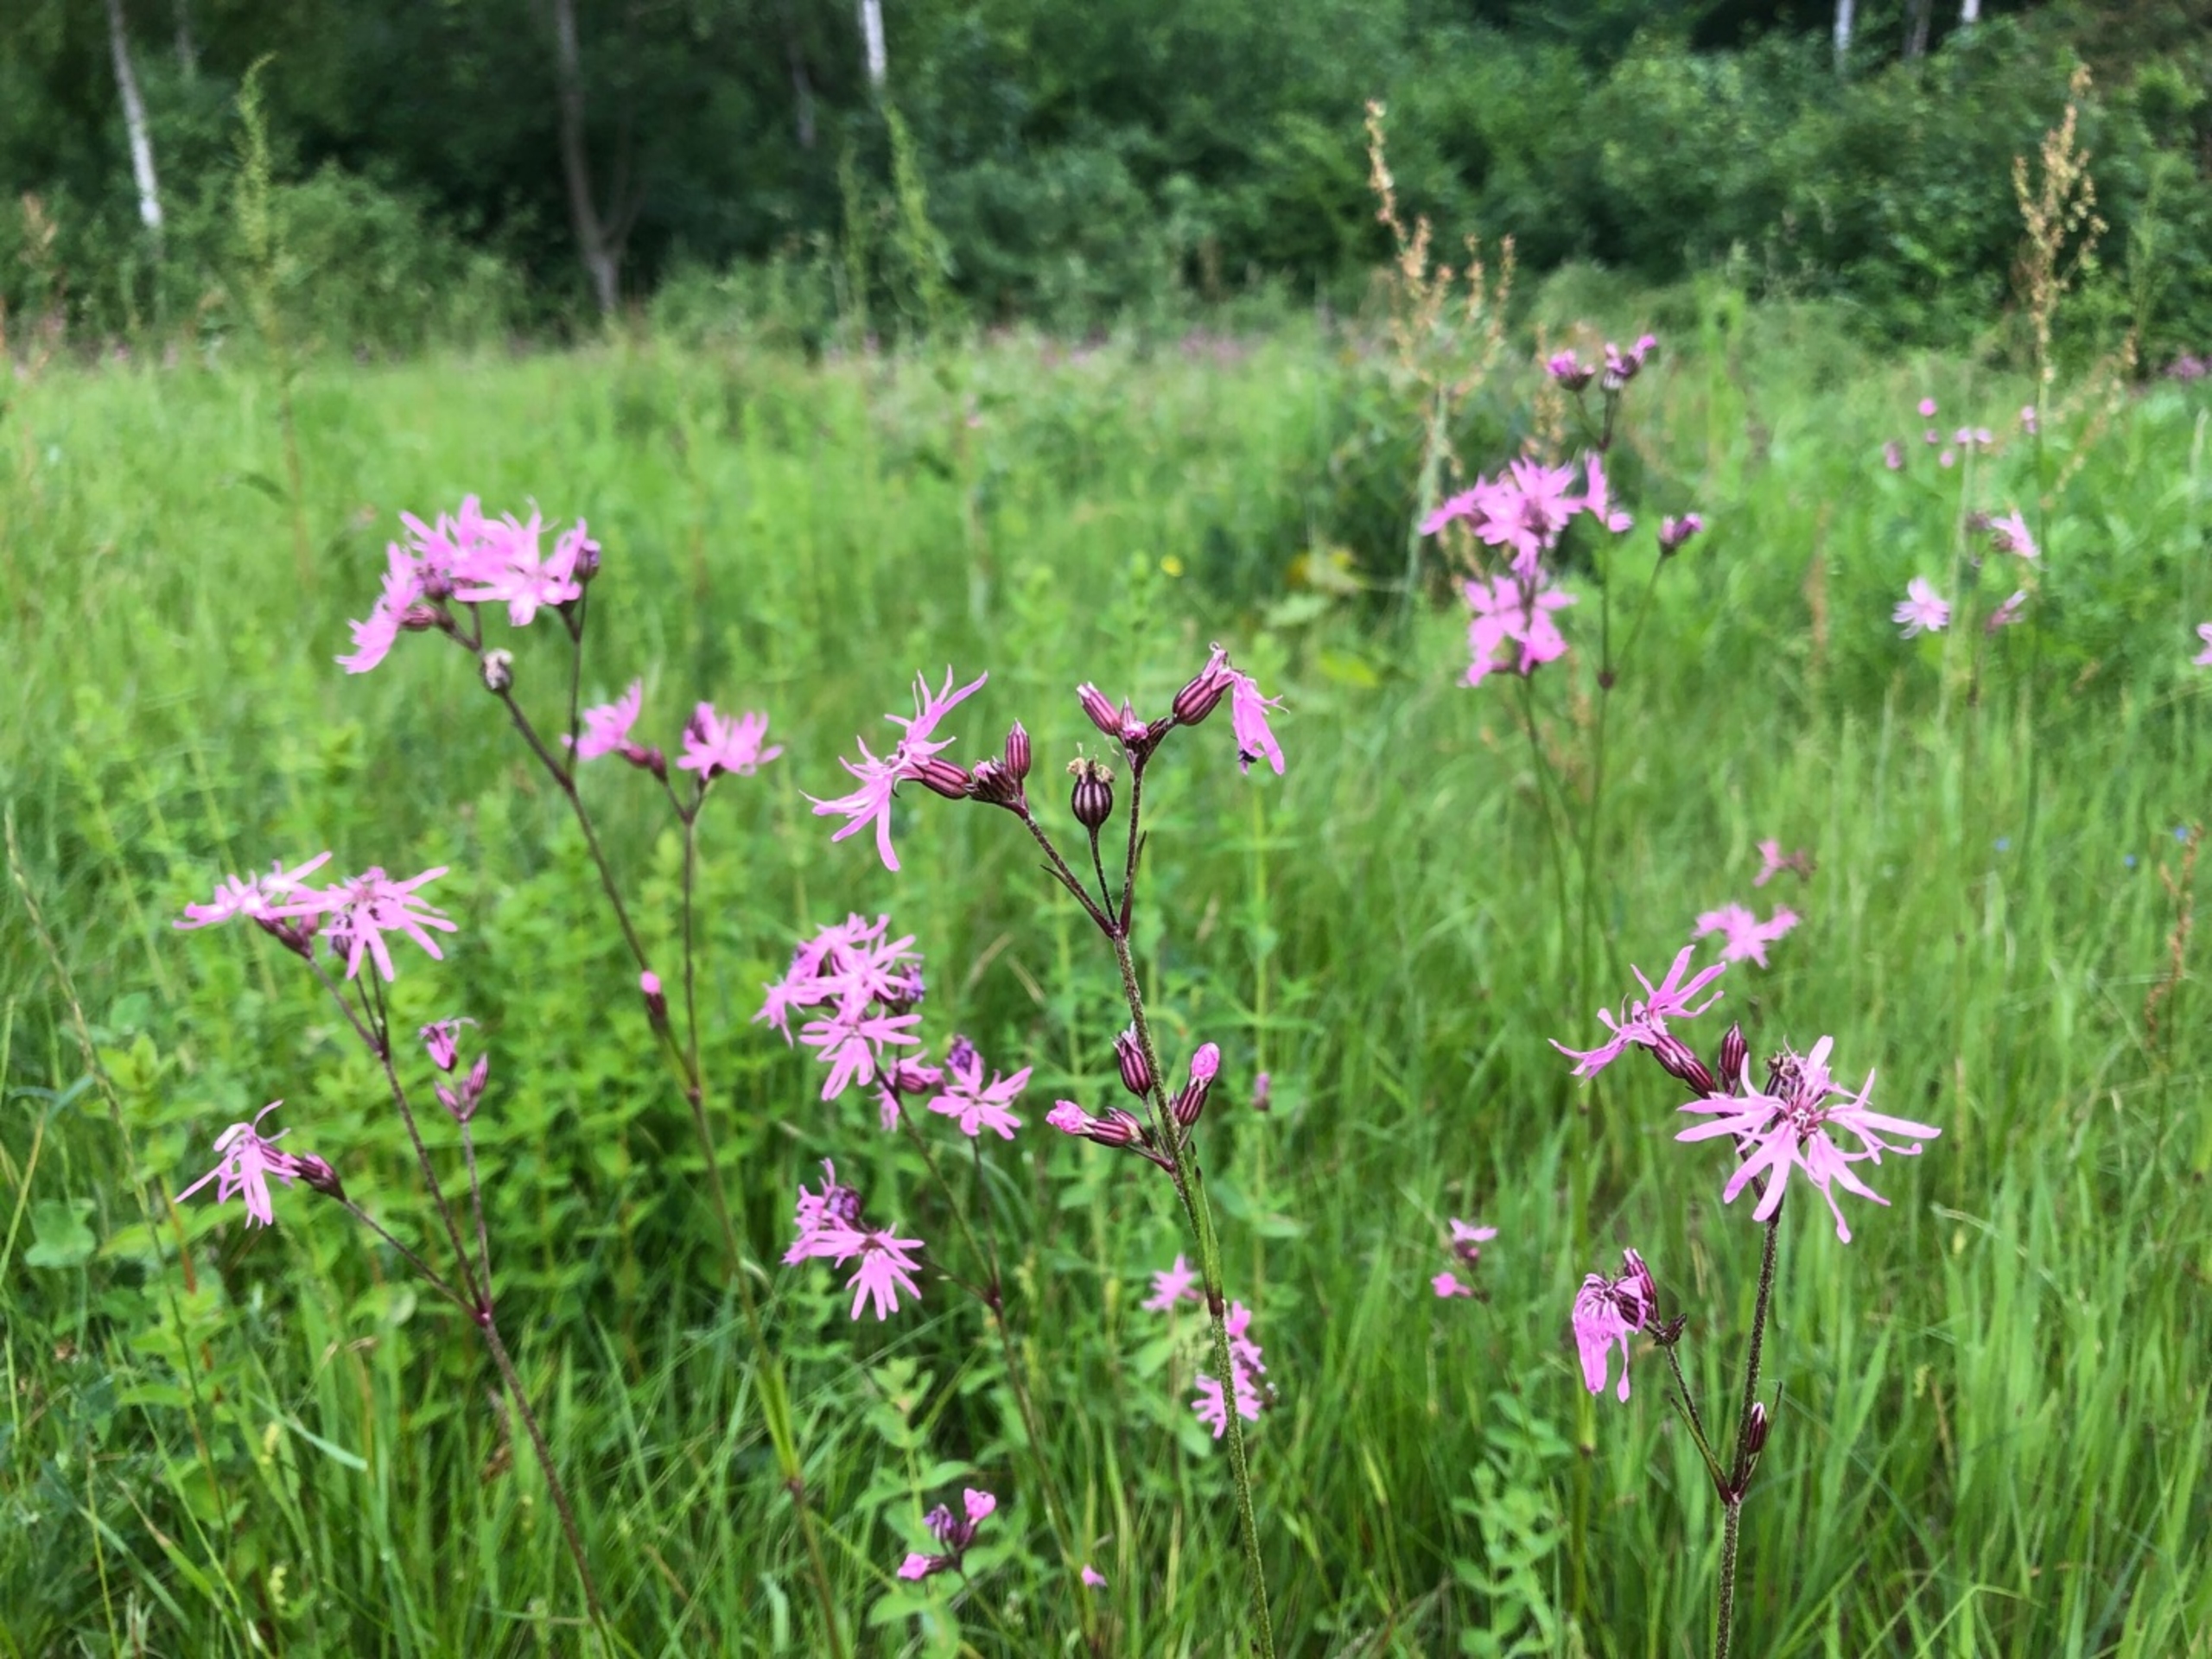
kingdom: Plantae
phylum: Tracheophyta
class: Magnoliopsida
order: Caryophyllales
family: Caryophyllaceae
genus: Silene
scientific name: Silene flos-cuculi
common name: Trævlekrone
